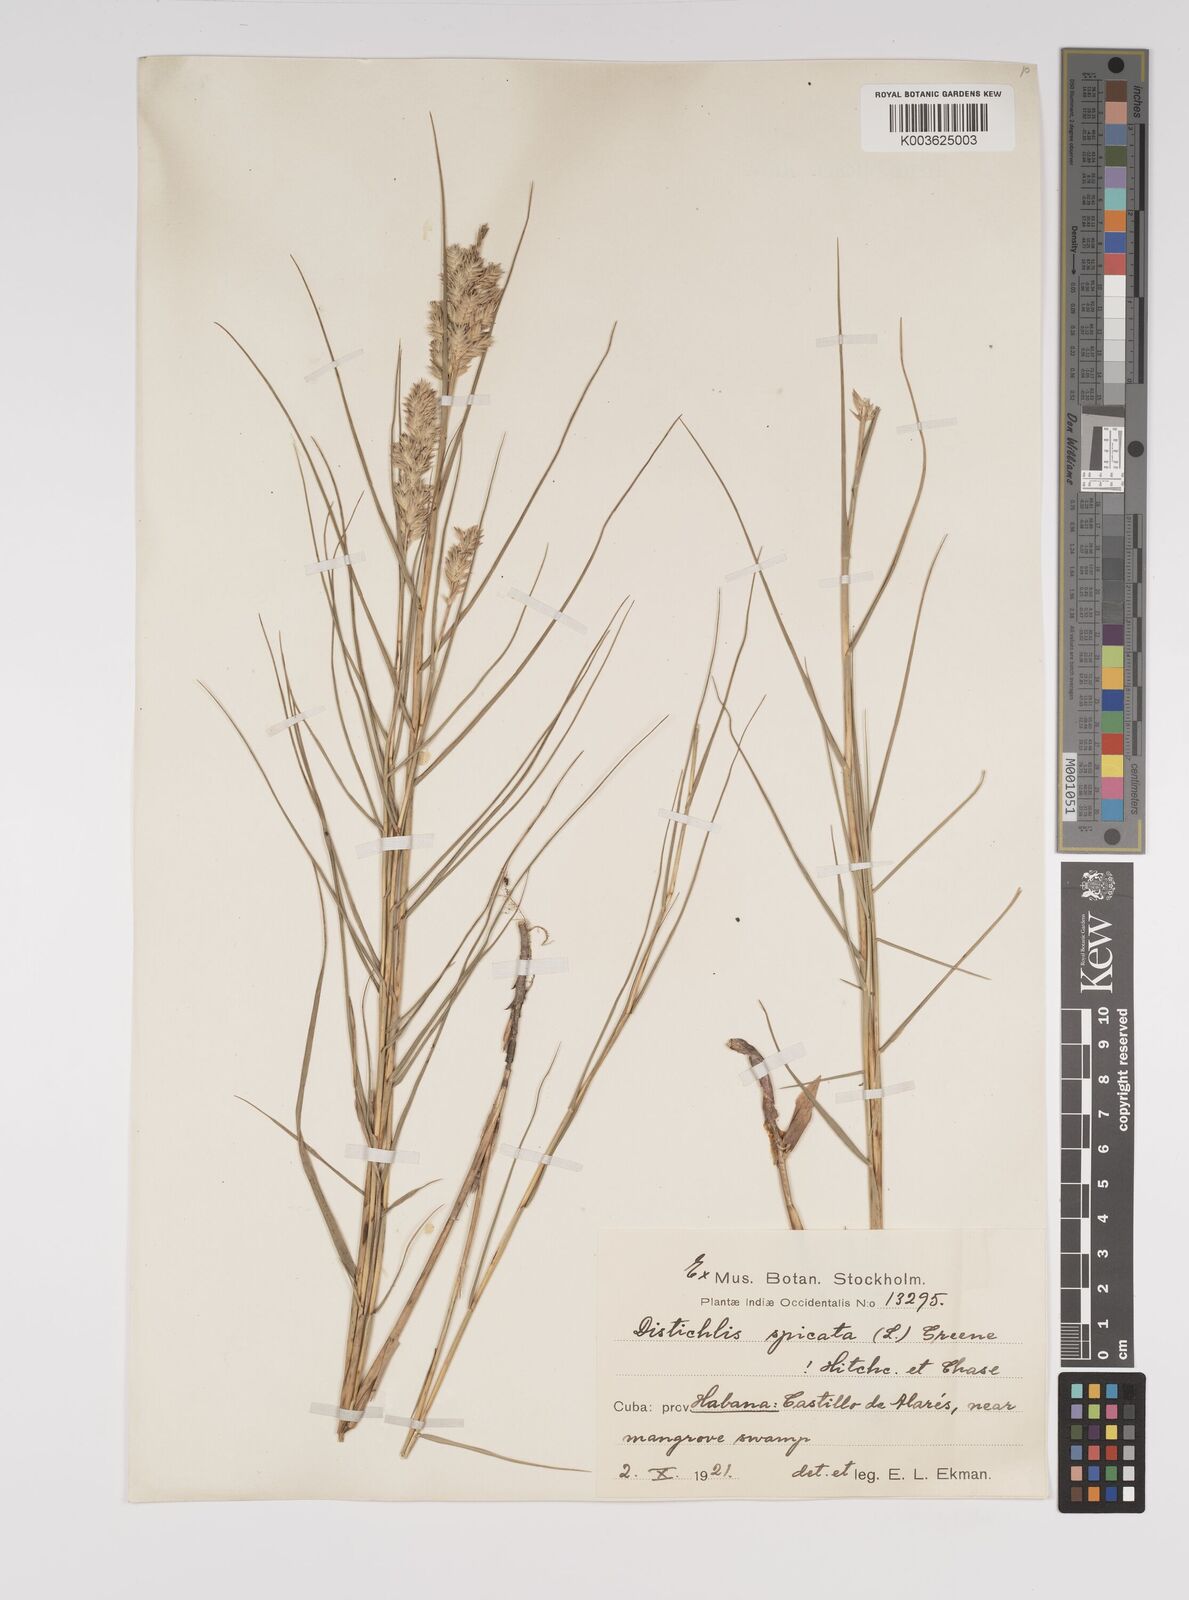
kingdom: Plantae
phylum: Tracheophyta
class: Liliopsida
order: Poales
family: Poaceae
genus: Distichlis
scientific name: Distichlis spicata
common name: Saltgrass
